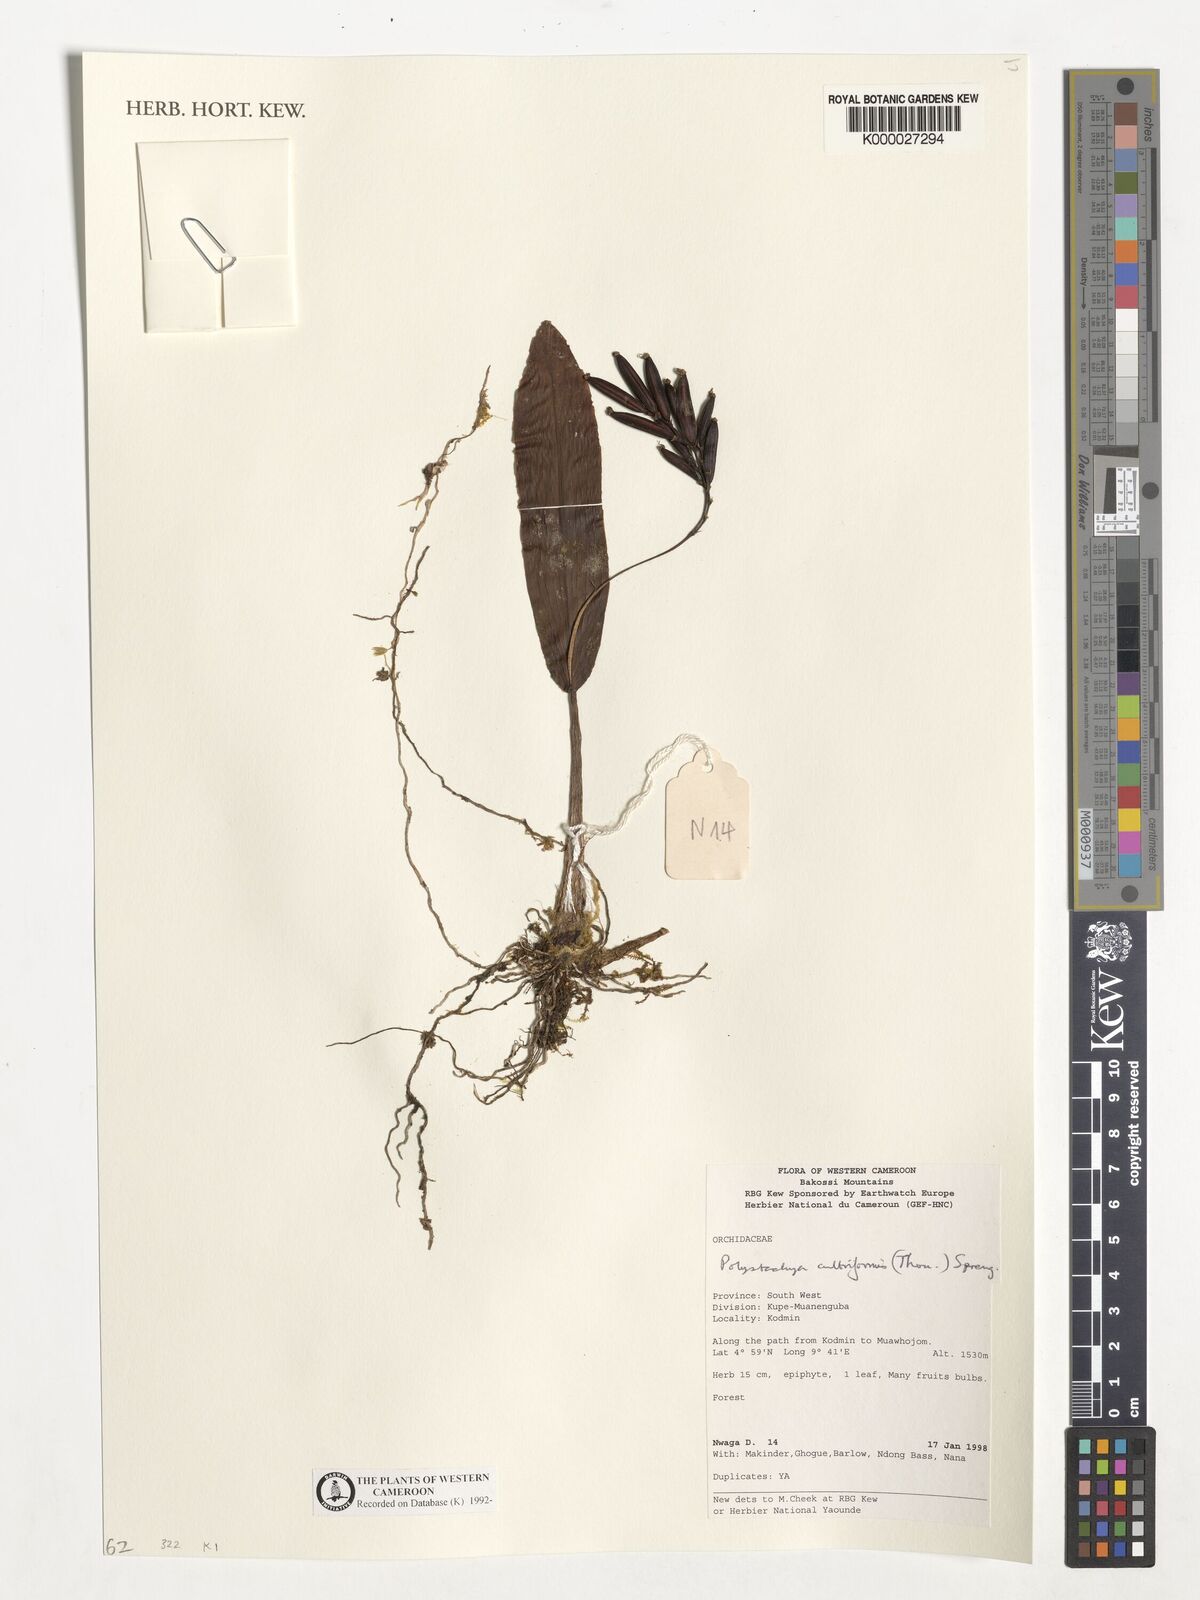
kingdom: Plantae
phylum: Tracheophyta
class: Liliopsida
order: Asparagales
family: Orchidaceae
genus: Polystachya
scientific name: Polystachya cultriformis
